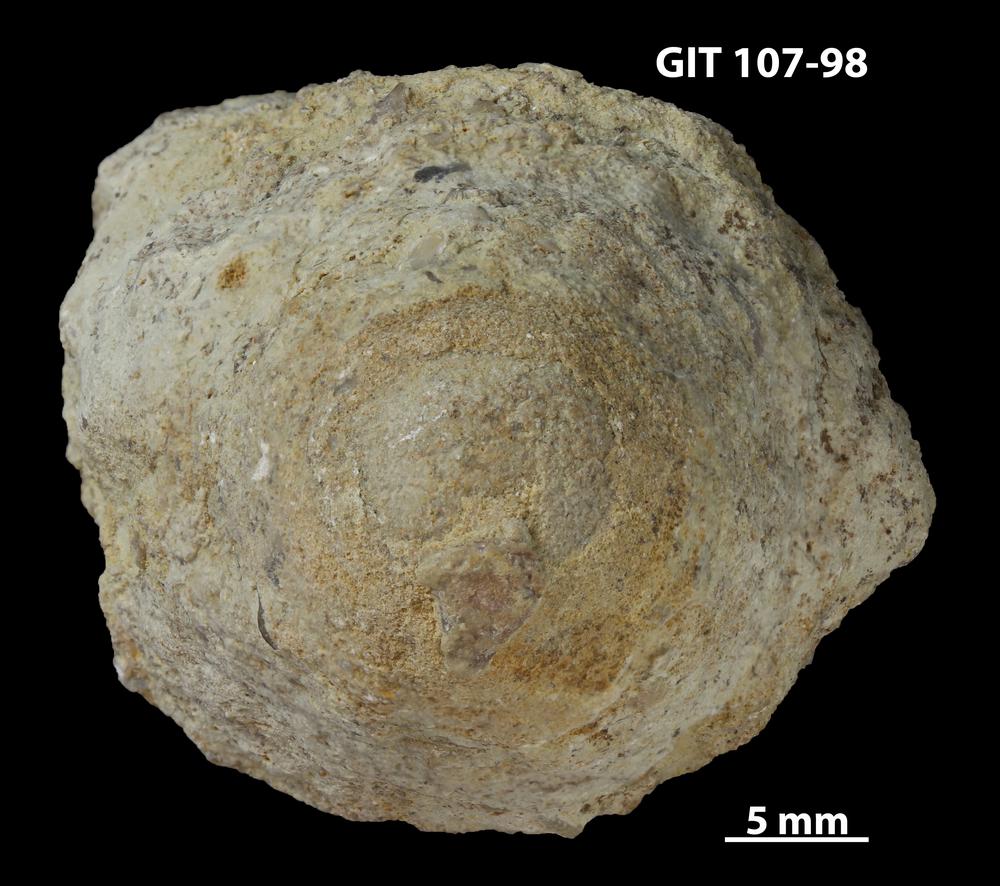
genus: Conichnus
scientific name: Conichnus
